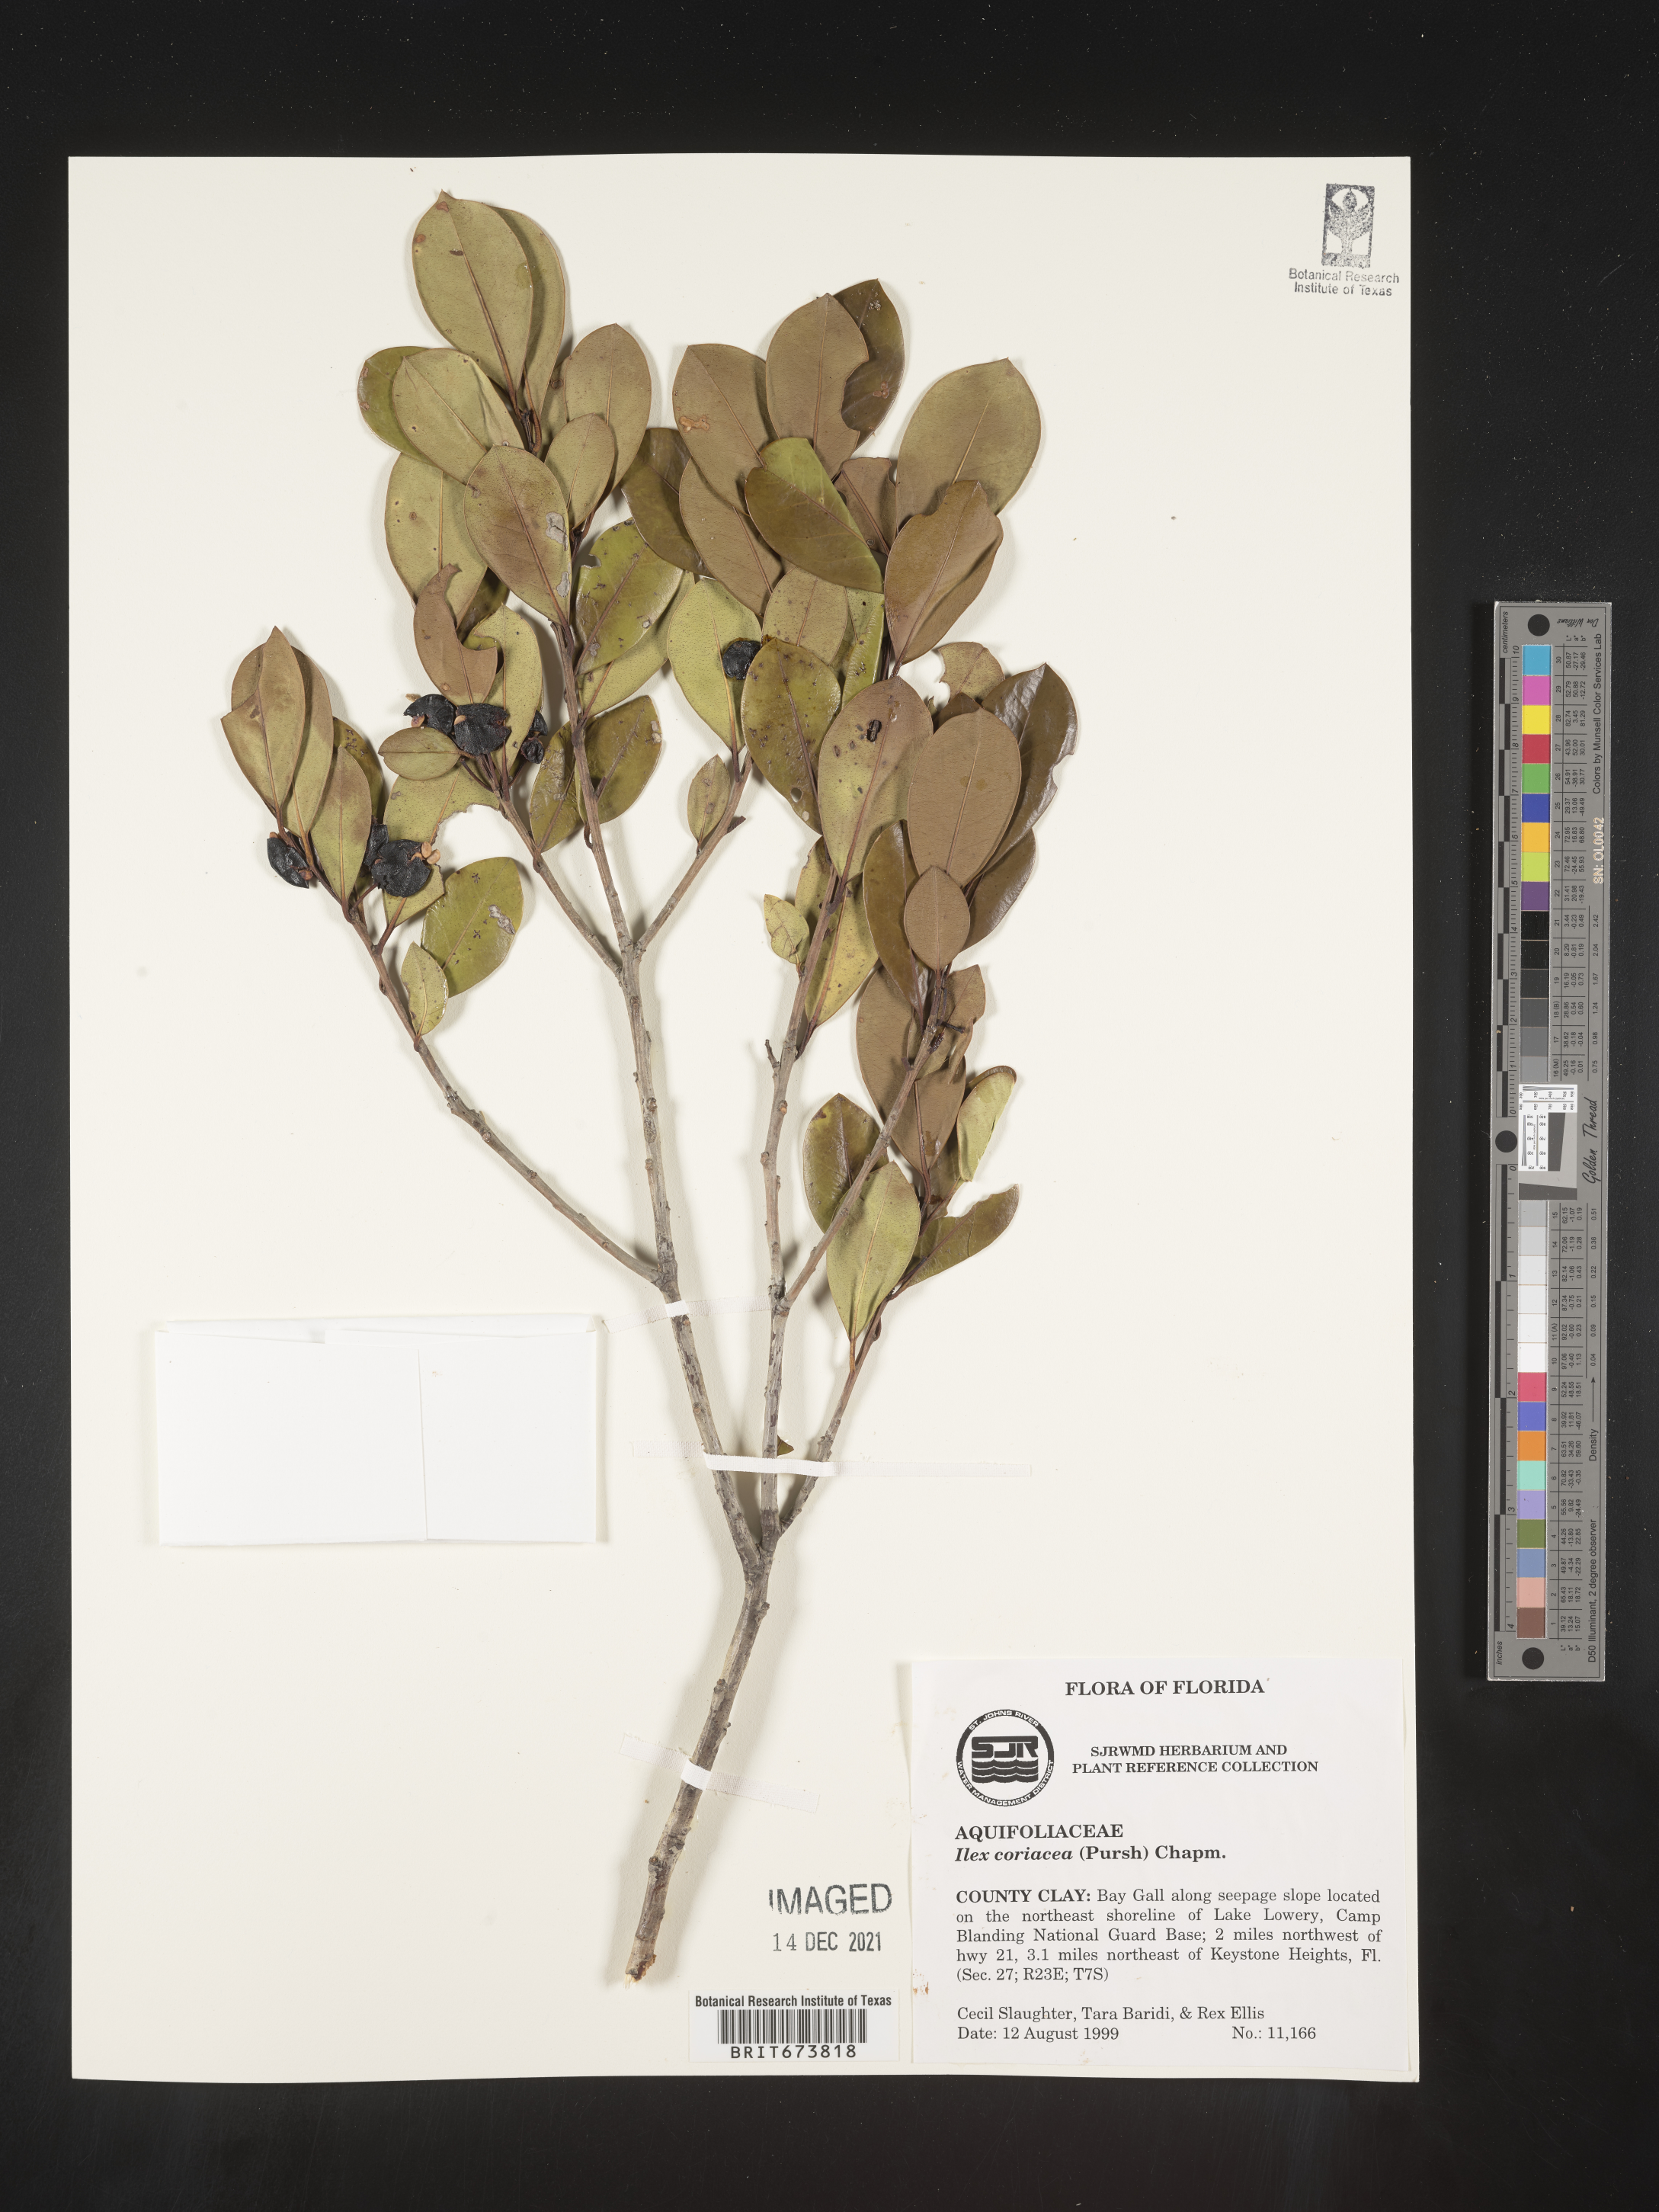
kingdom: Plantae
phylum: Tracheophyta
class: Magnoliopsida
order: Aquifoliales
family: Aquifoliaceae
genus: Ilex
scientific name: Ilex coriacea
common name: Sweet gallberry
